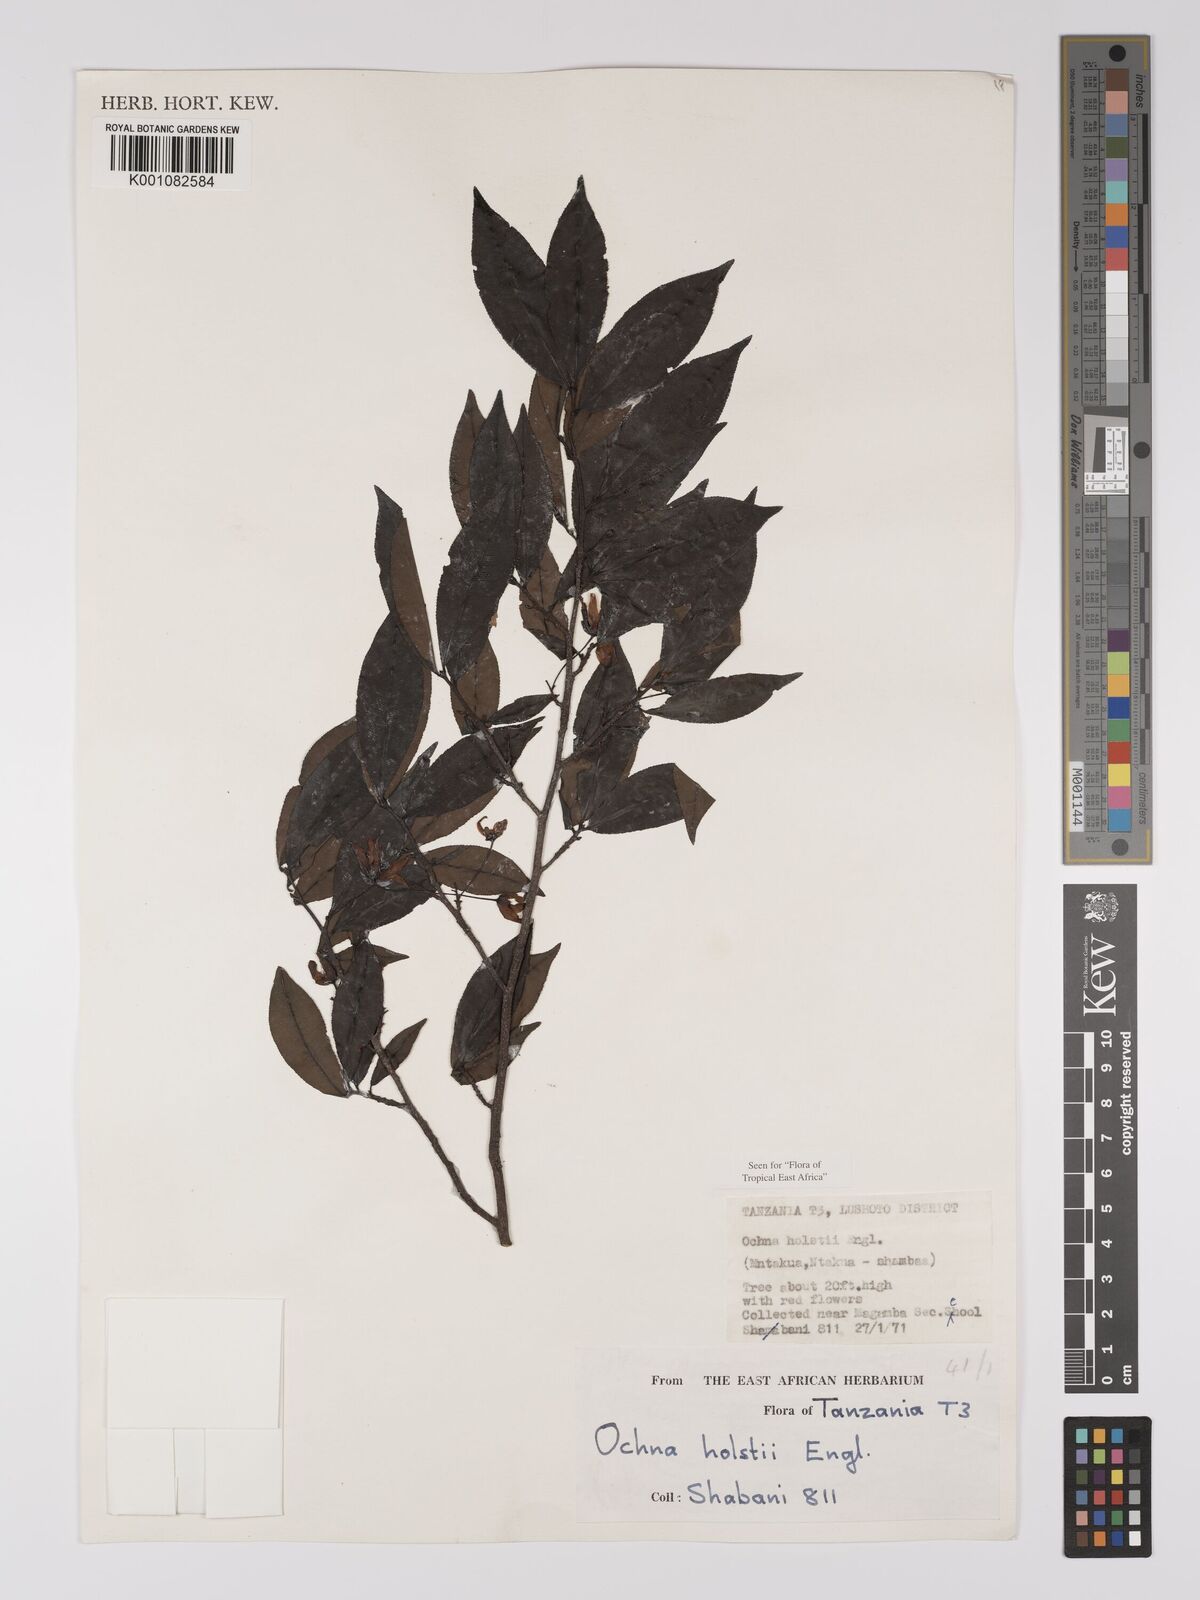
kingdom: Plantae
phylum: Tracheophyta
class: Magnoliopsida
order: Malpighiales
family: Ochnaceae
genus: Ochna
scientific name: Ochna holstii
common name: Red ironwood
